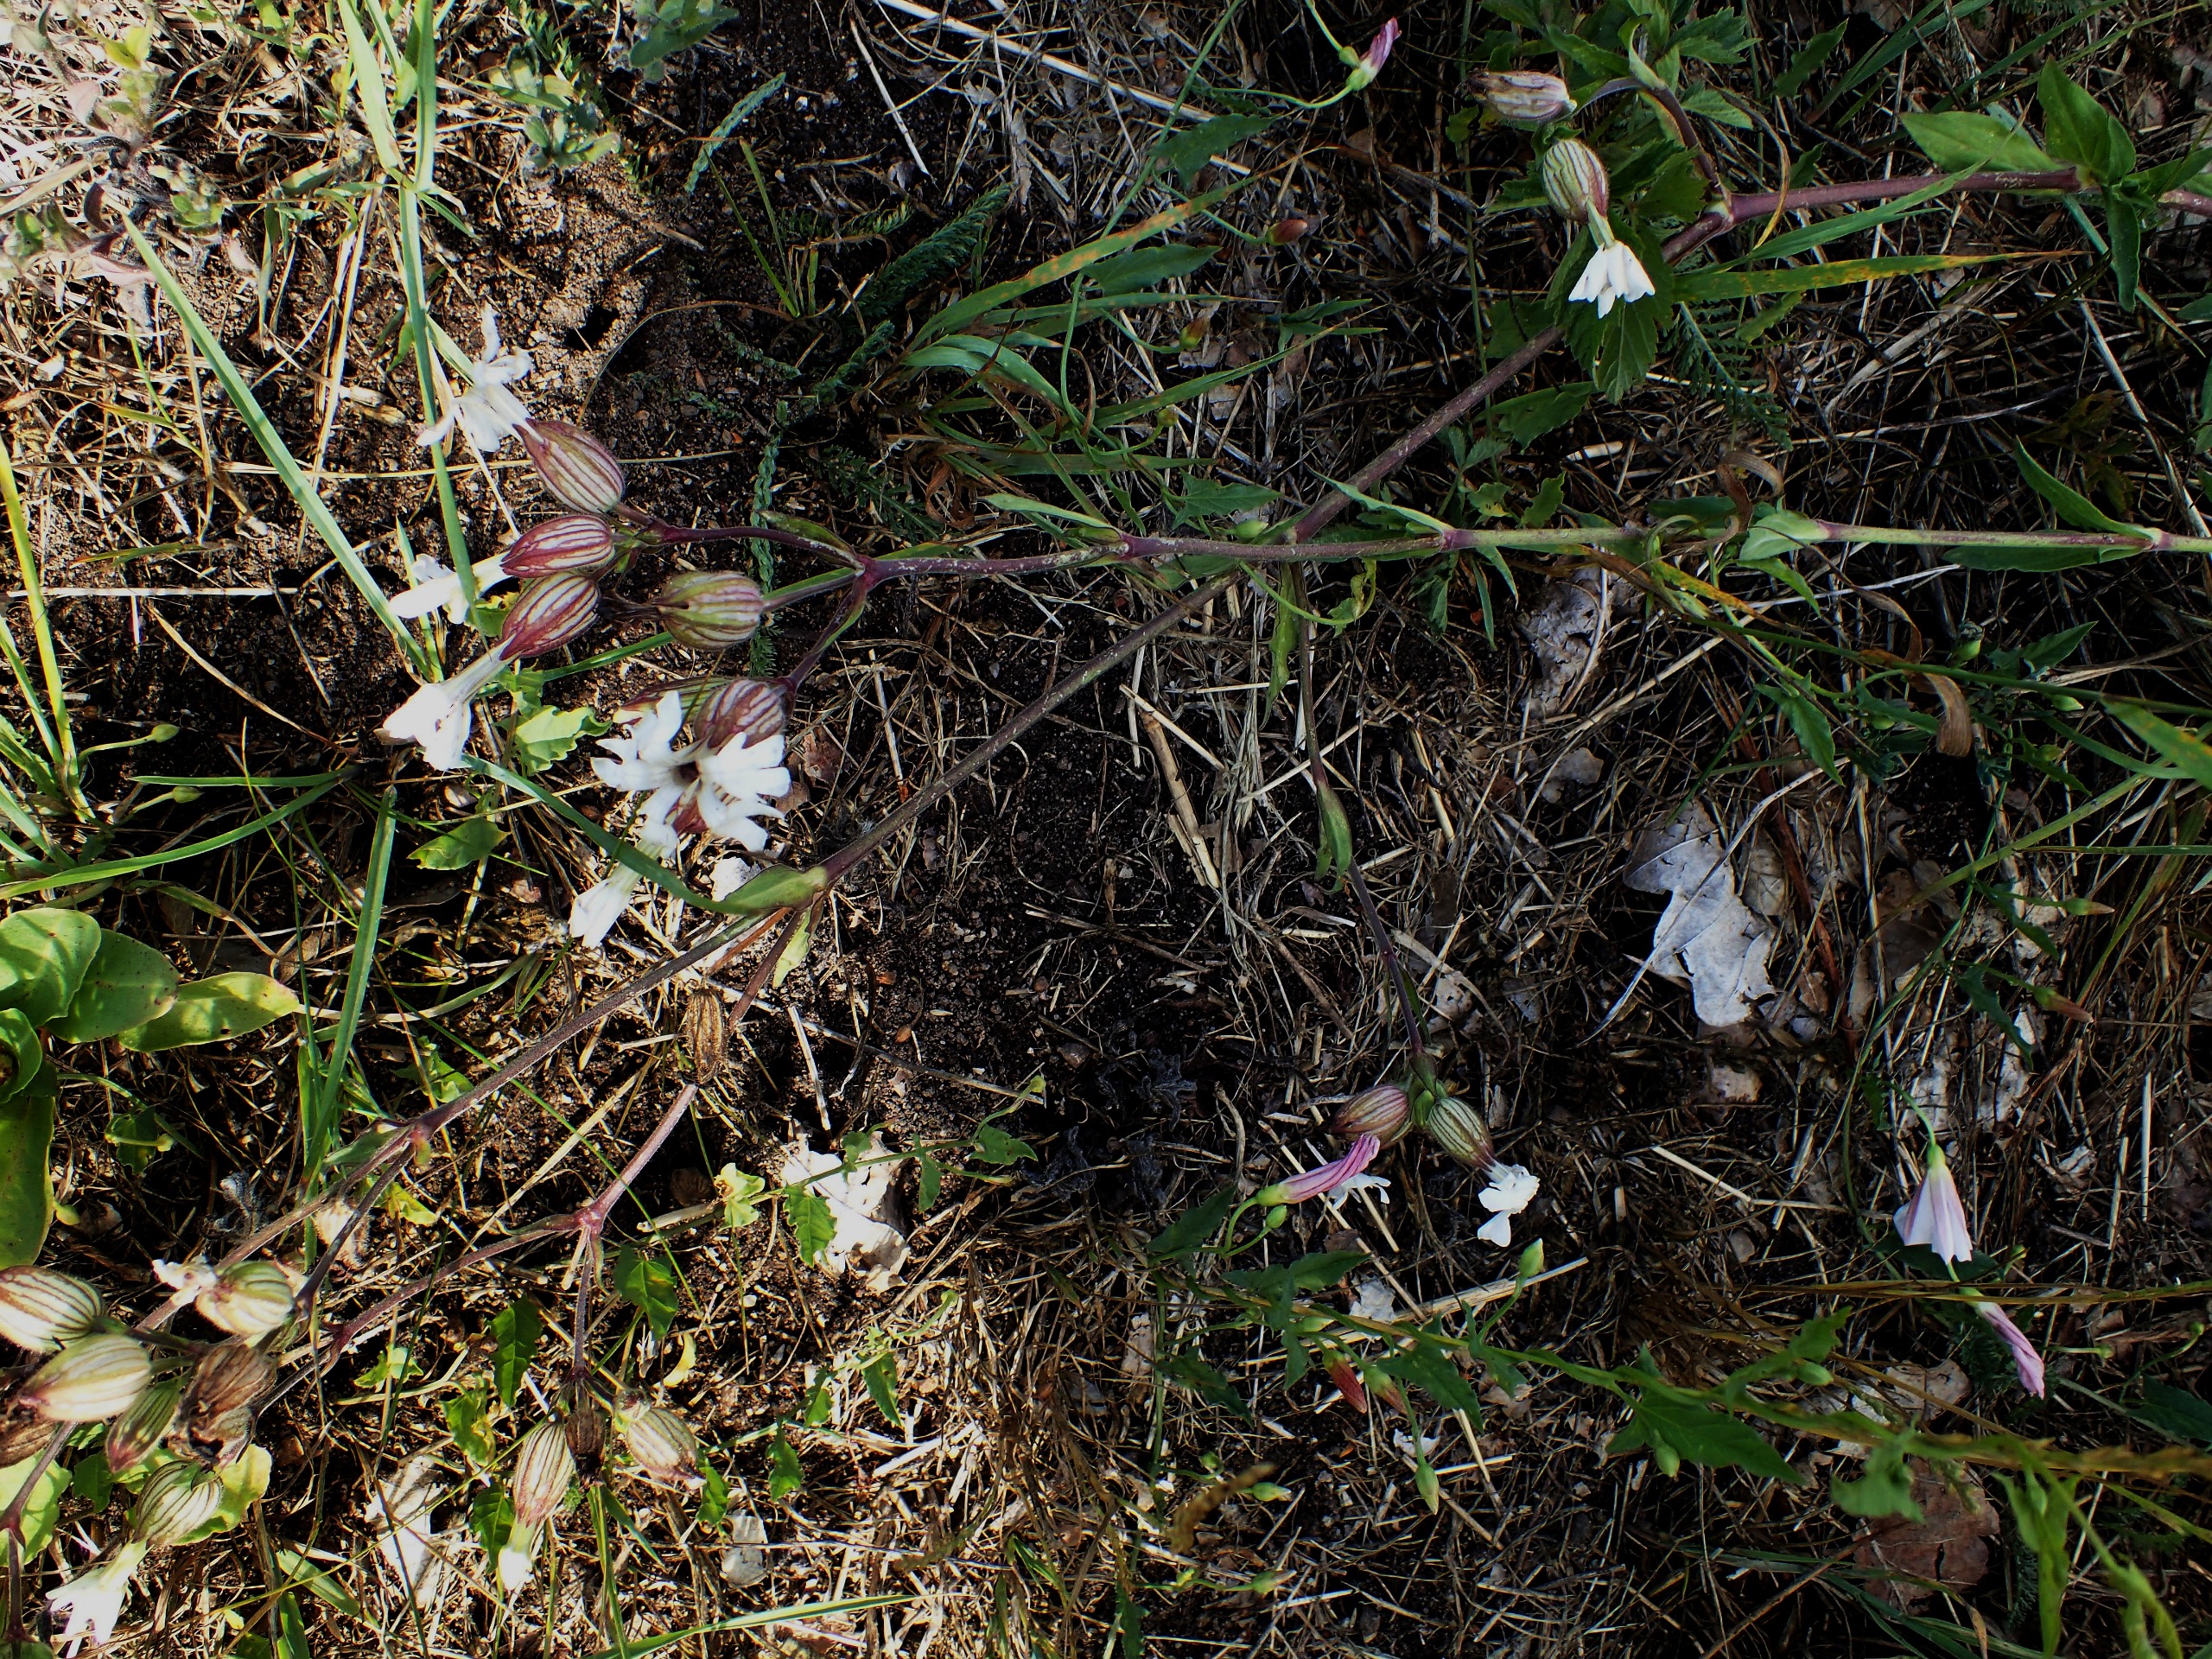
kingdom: Plantae
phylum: Tracheophyta
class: Magnoliopsida
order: Caryophyllales
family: Caryophyllaceae
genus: Silene
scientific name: Silene latifolia
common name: Aftenpragtstjerne
